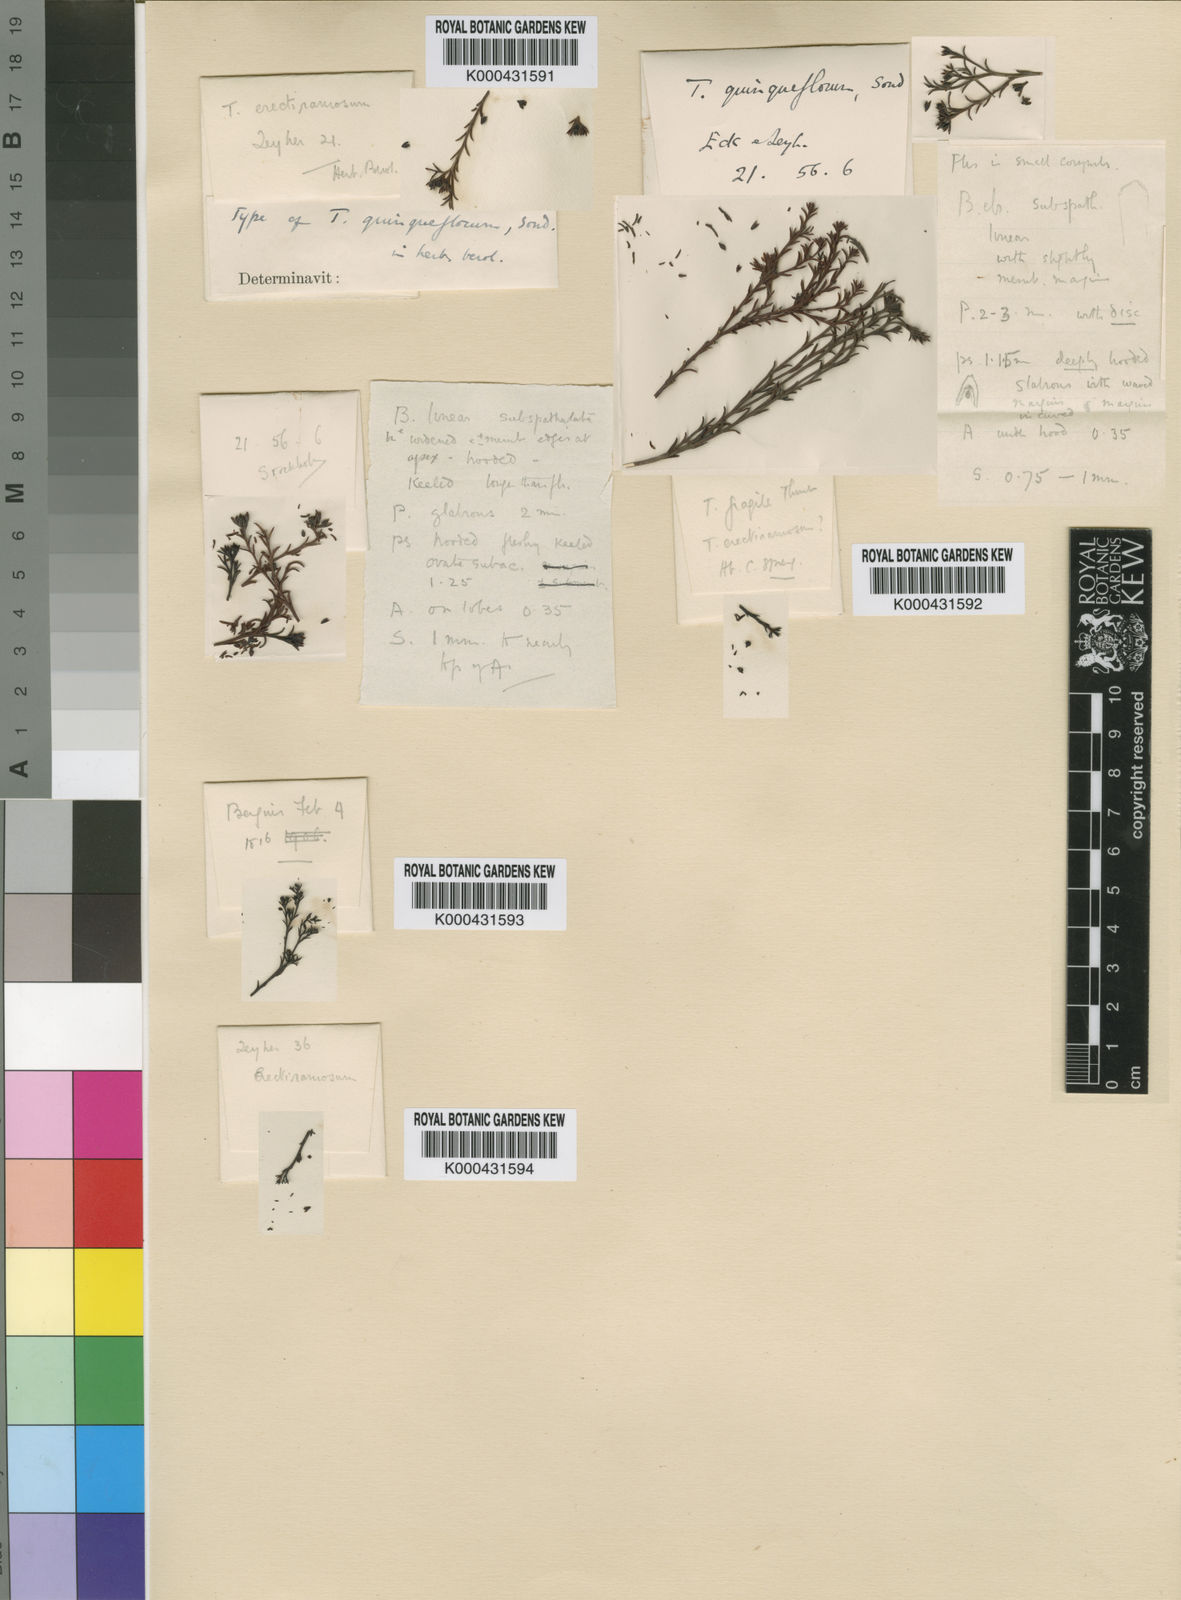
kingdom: Plantae
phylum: Tracheophyta
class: Magnoliopsida
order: Santalales
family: Thesiaceae
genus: Thesium
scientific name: Thesium quinqueflorum
